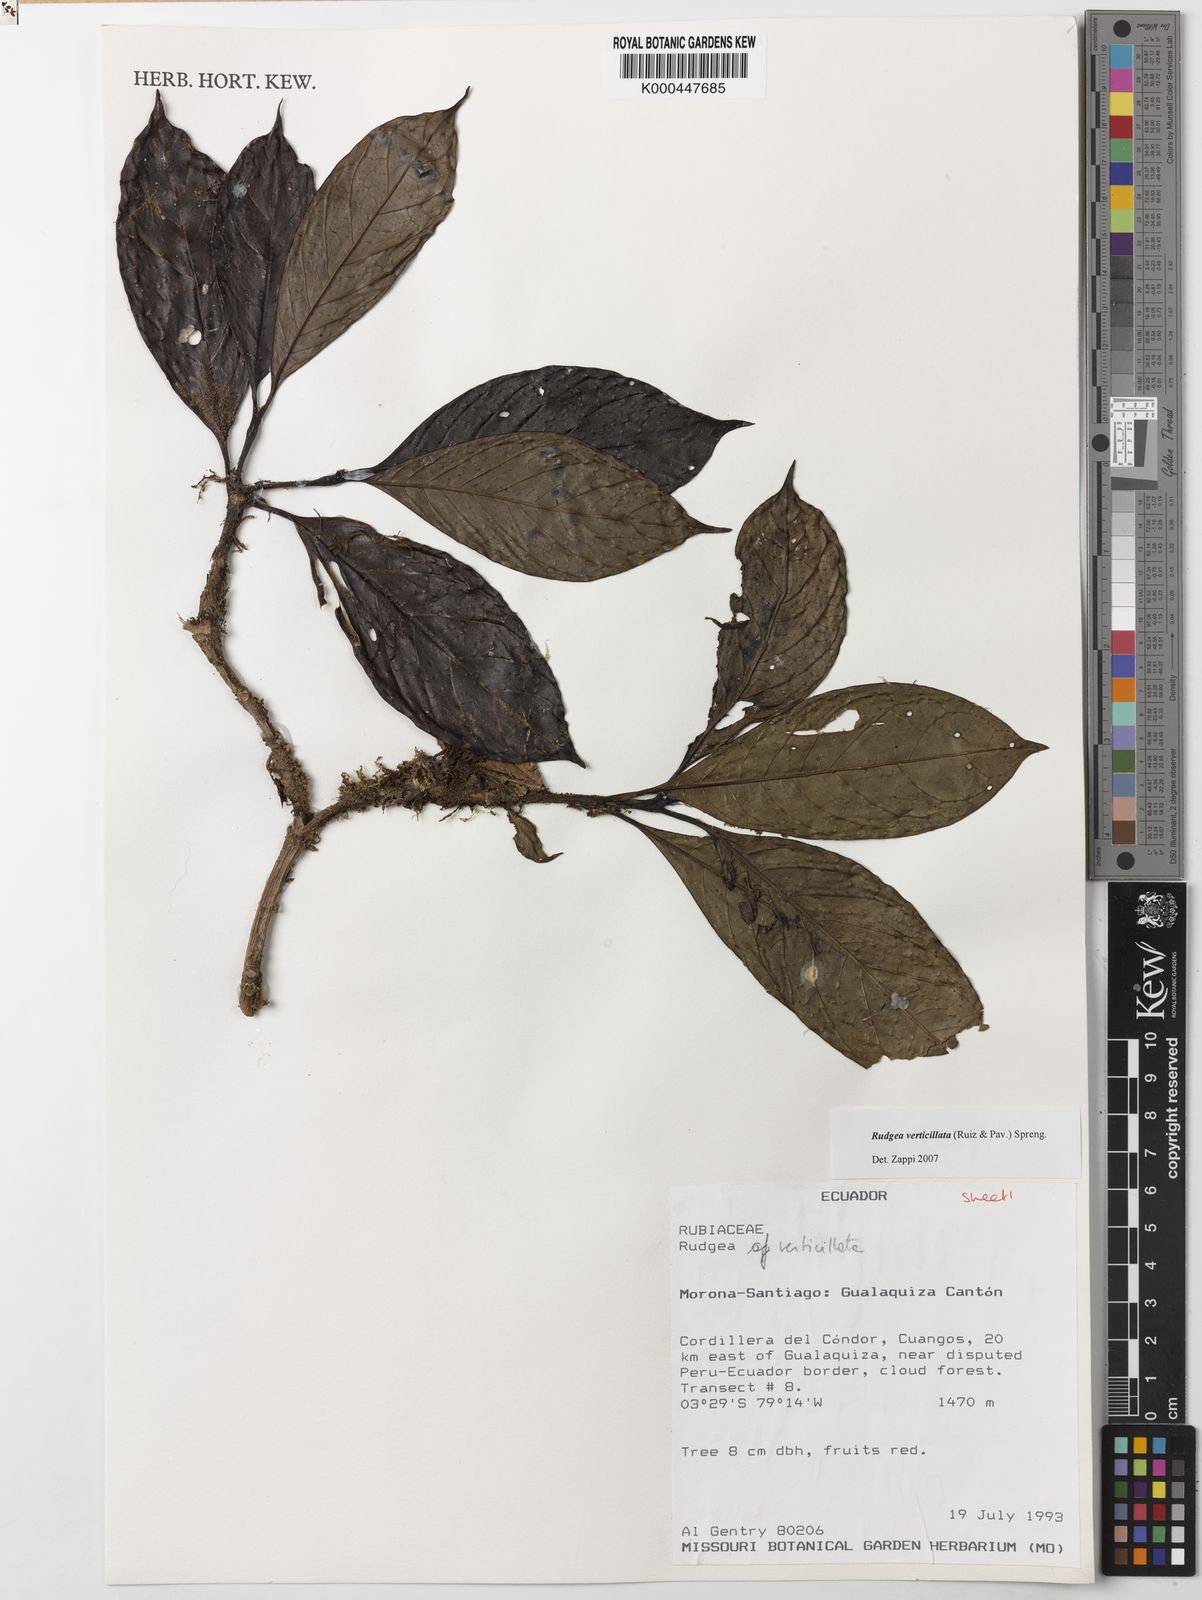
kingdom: Plantae
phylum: Tracheophyta
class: Magnoliopsida
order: Gentianales
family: Rubiaceae
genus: Rudgea
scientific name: Rudgea verticillata
